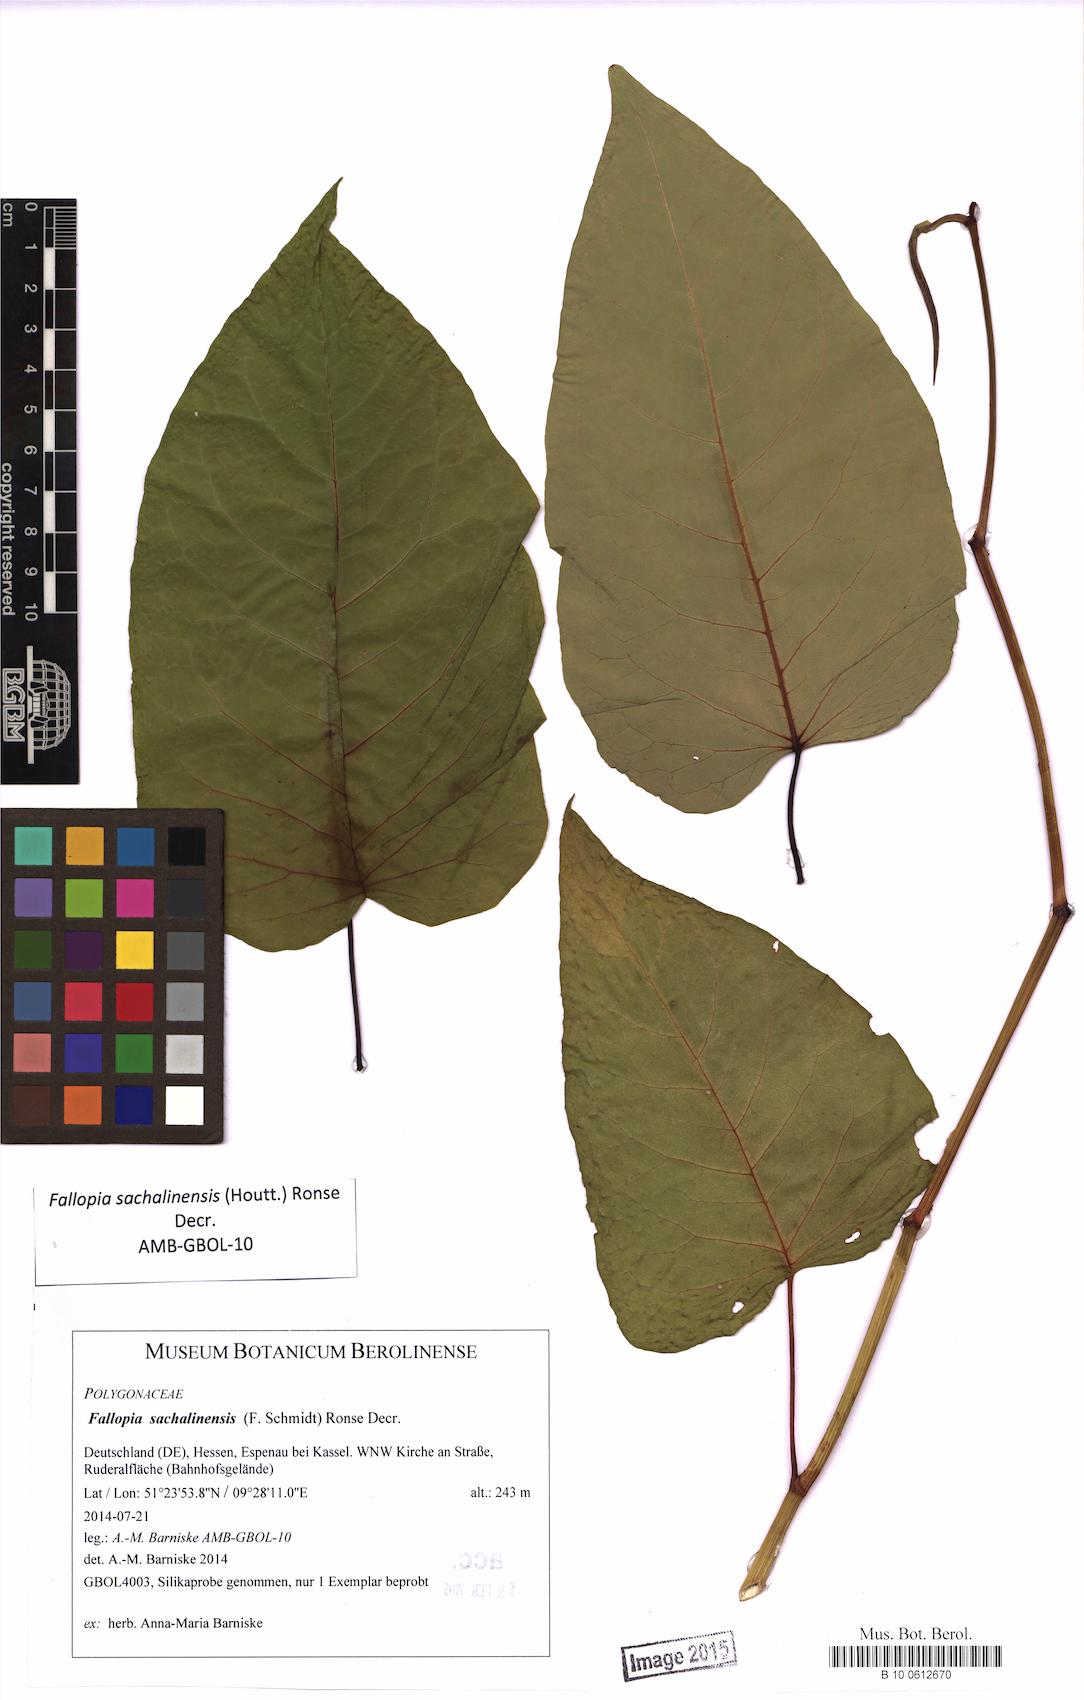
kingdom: Plantae
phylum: Tracheophyta
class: Magnoliopsida
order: Caryophyllales
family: Polygonaceae
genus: Reynoutria
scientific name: Reynoutria sachalinensis
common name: Giant knotweed
